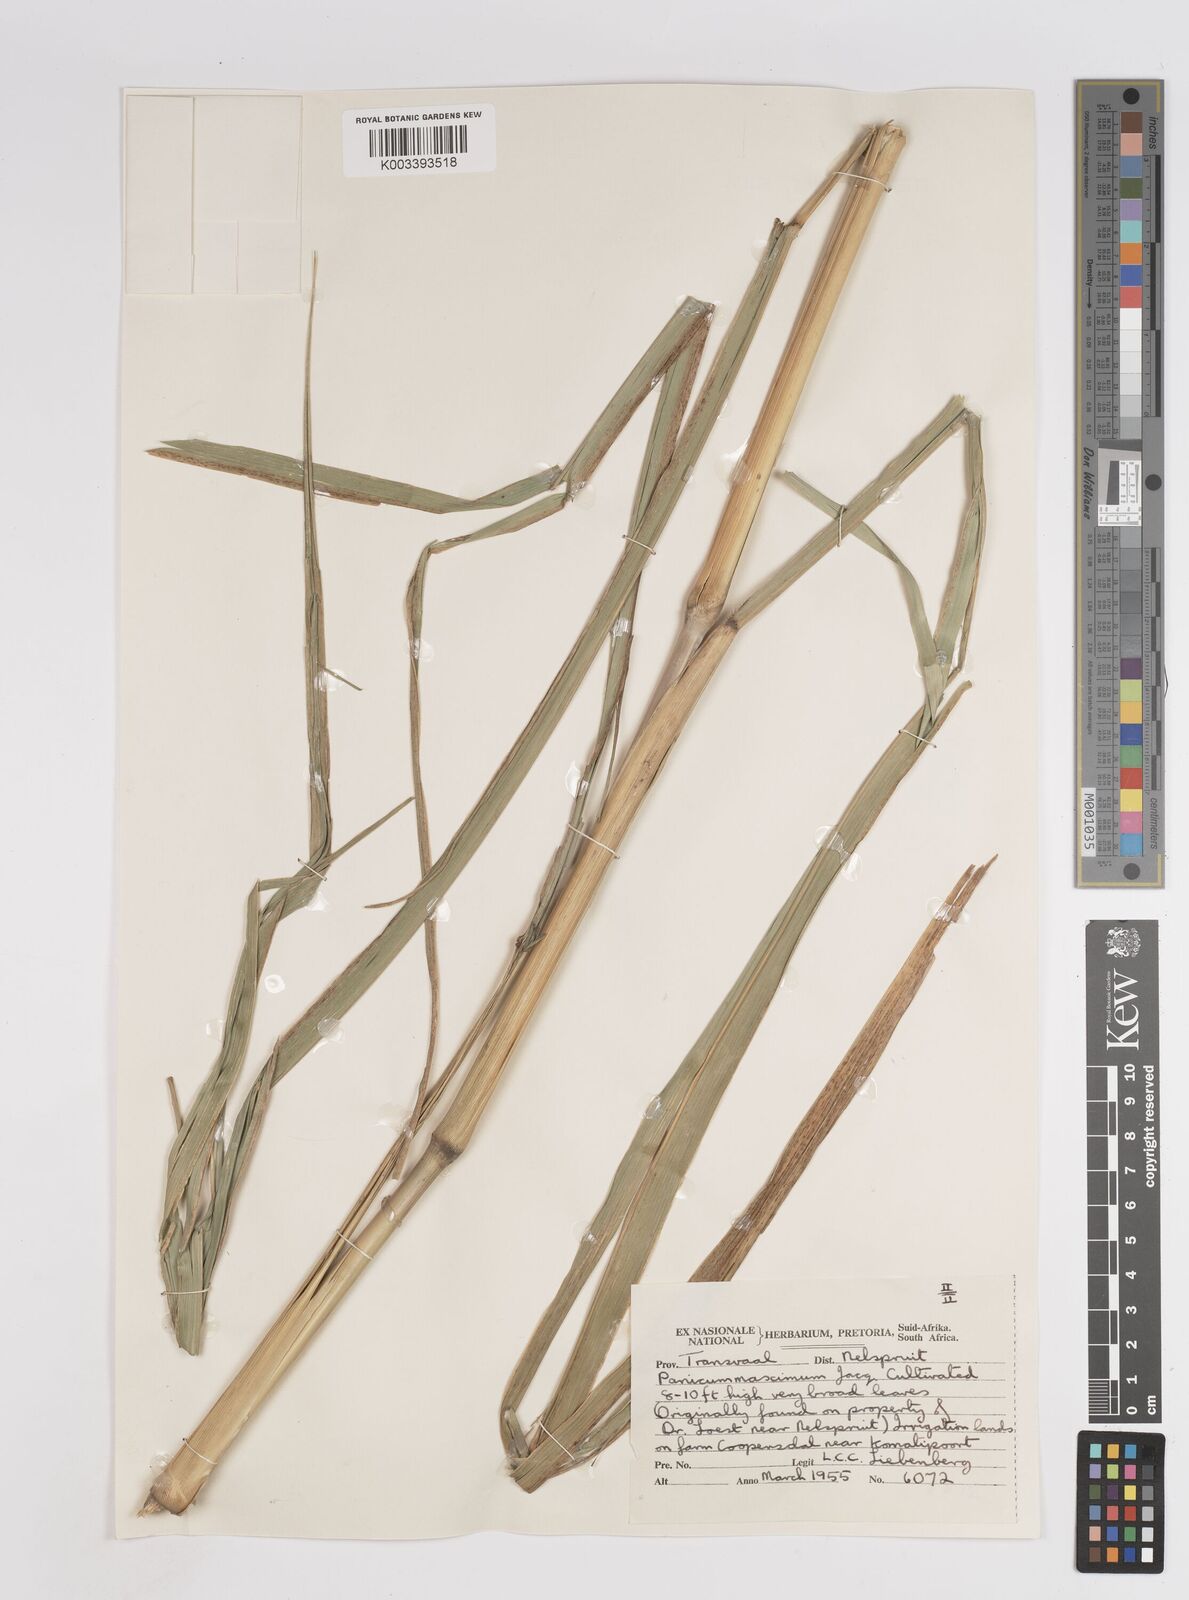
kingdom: Plantae
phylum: Tracheophyta
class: Liliopsida
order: Poales
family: Poaceae
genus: Megathyrsus
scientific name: Megathyrsus maximus
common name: Guineagrass
